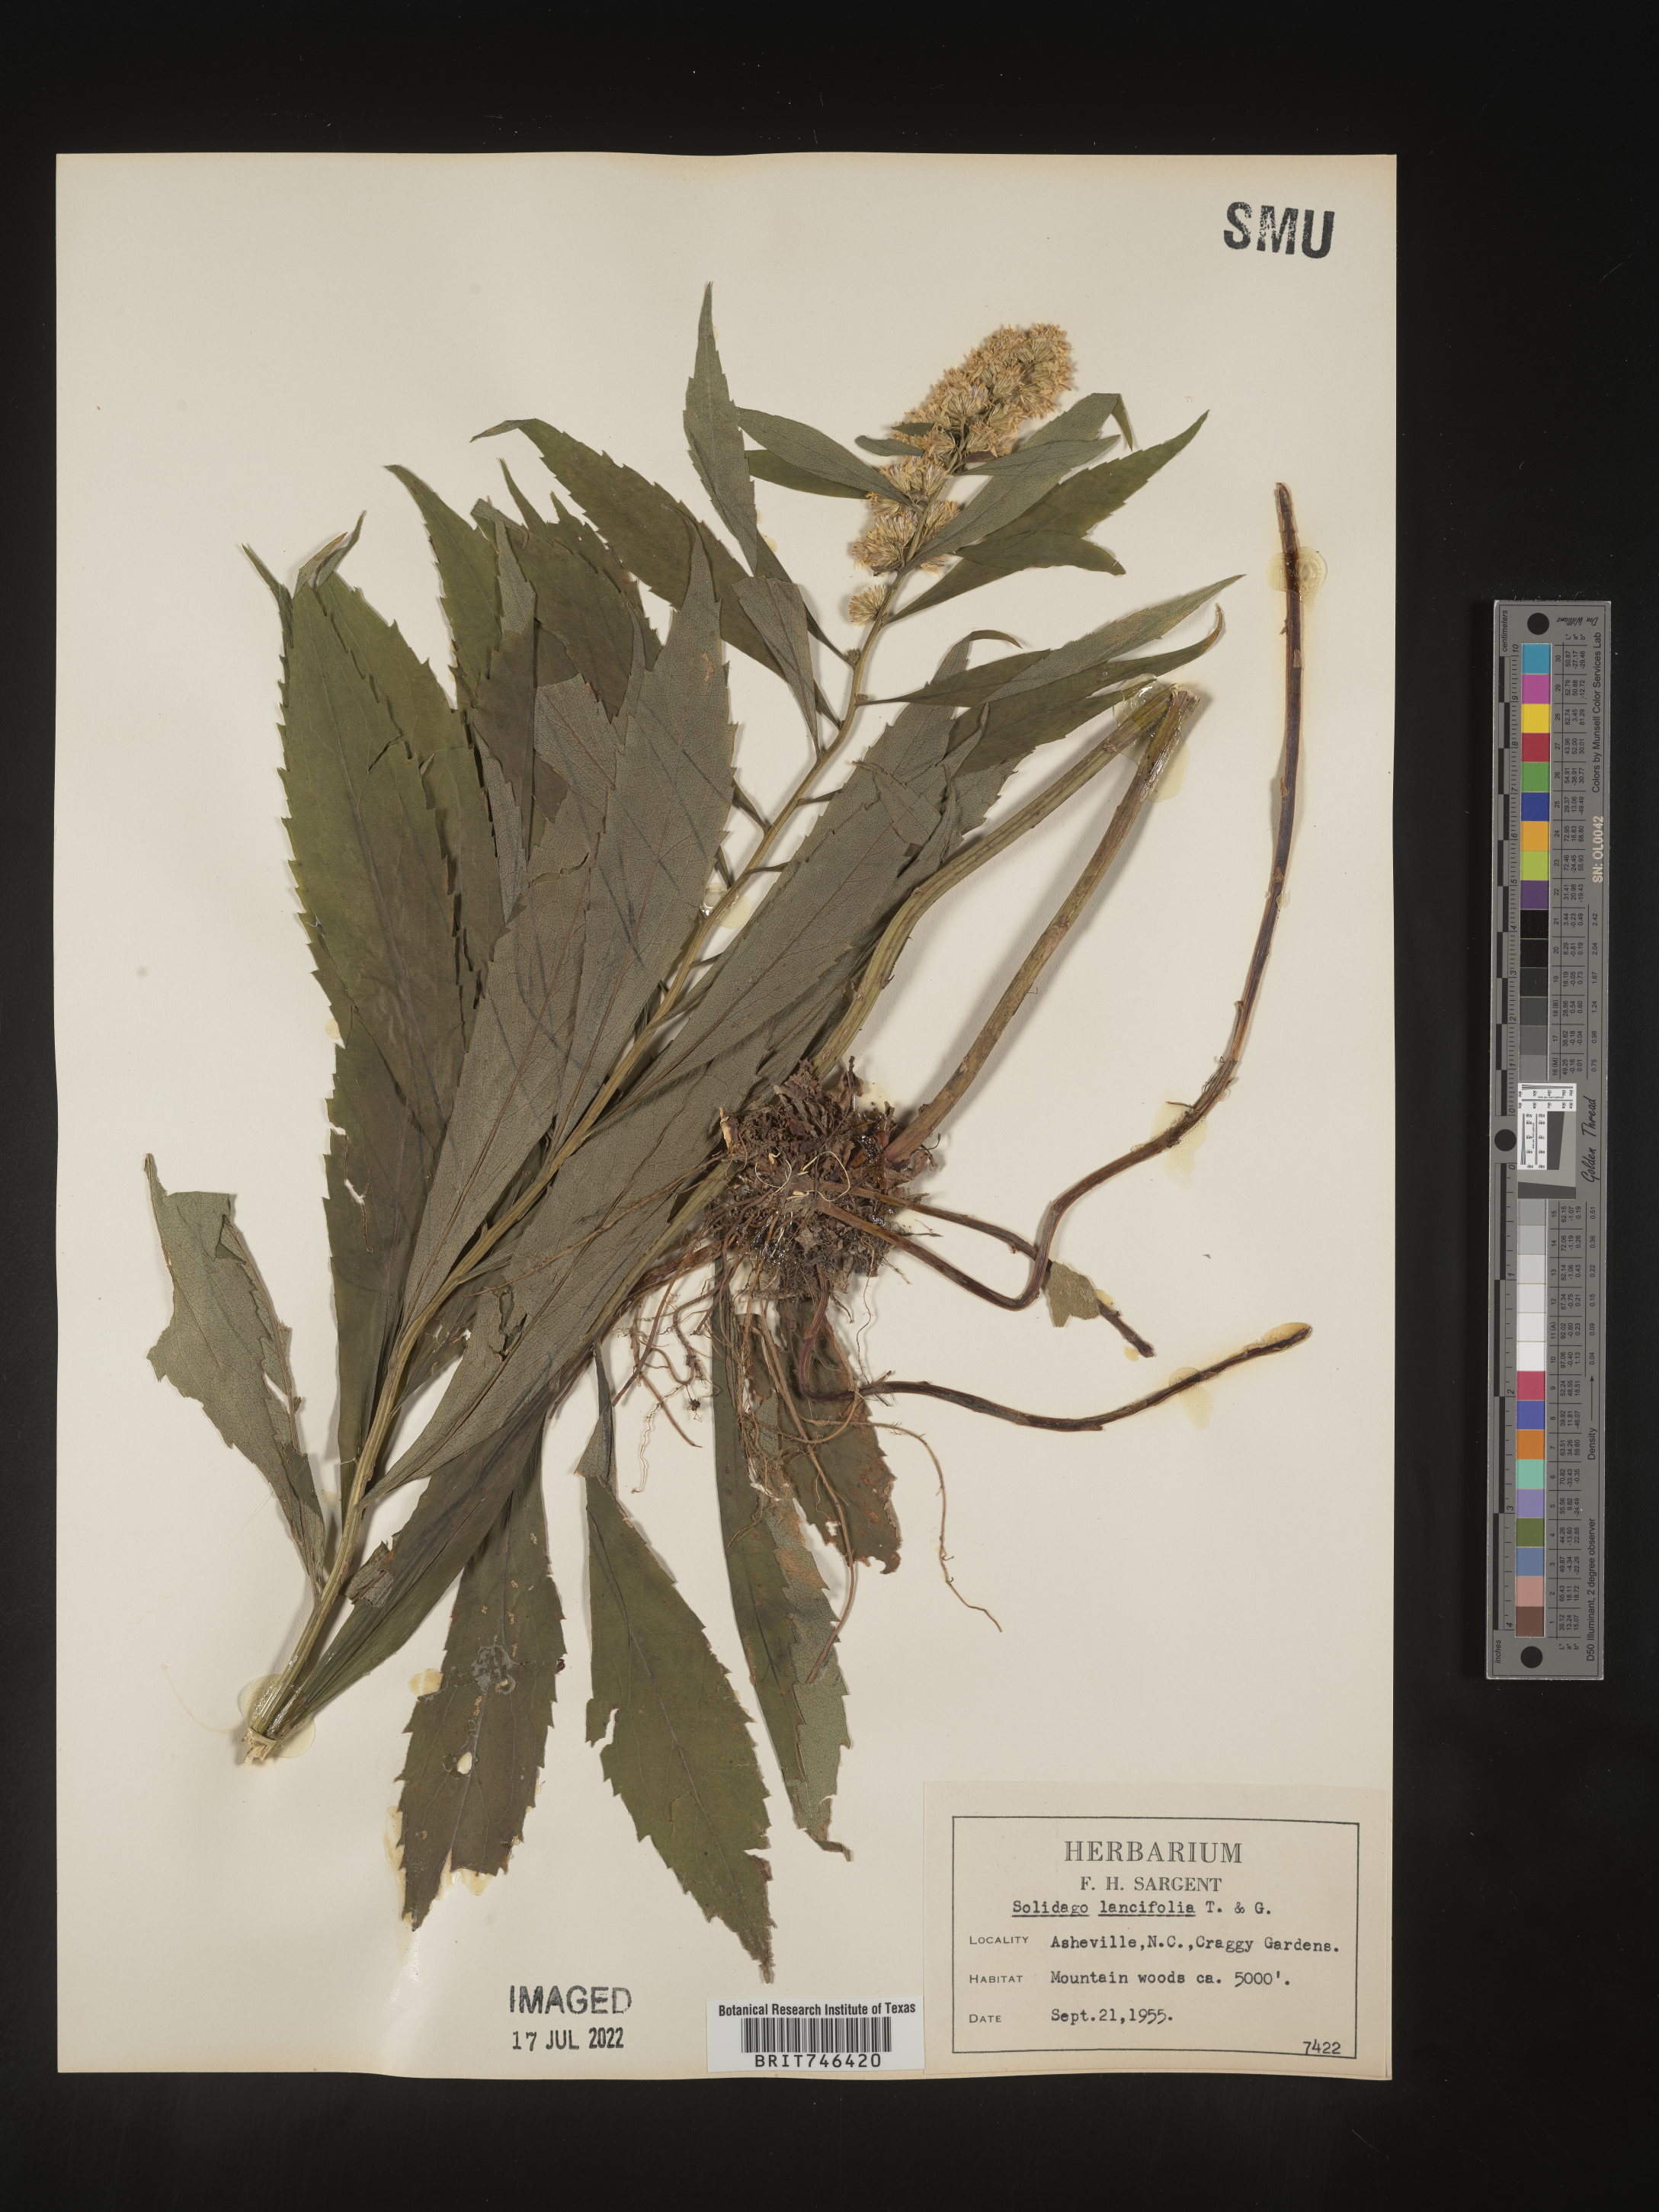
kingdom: Plantae
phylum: Tracheophyta
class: Magnoliopsida
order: Asterales
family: Asteraceae
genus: Solidago
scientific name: Solidago flaccidifolia
